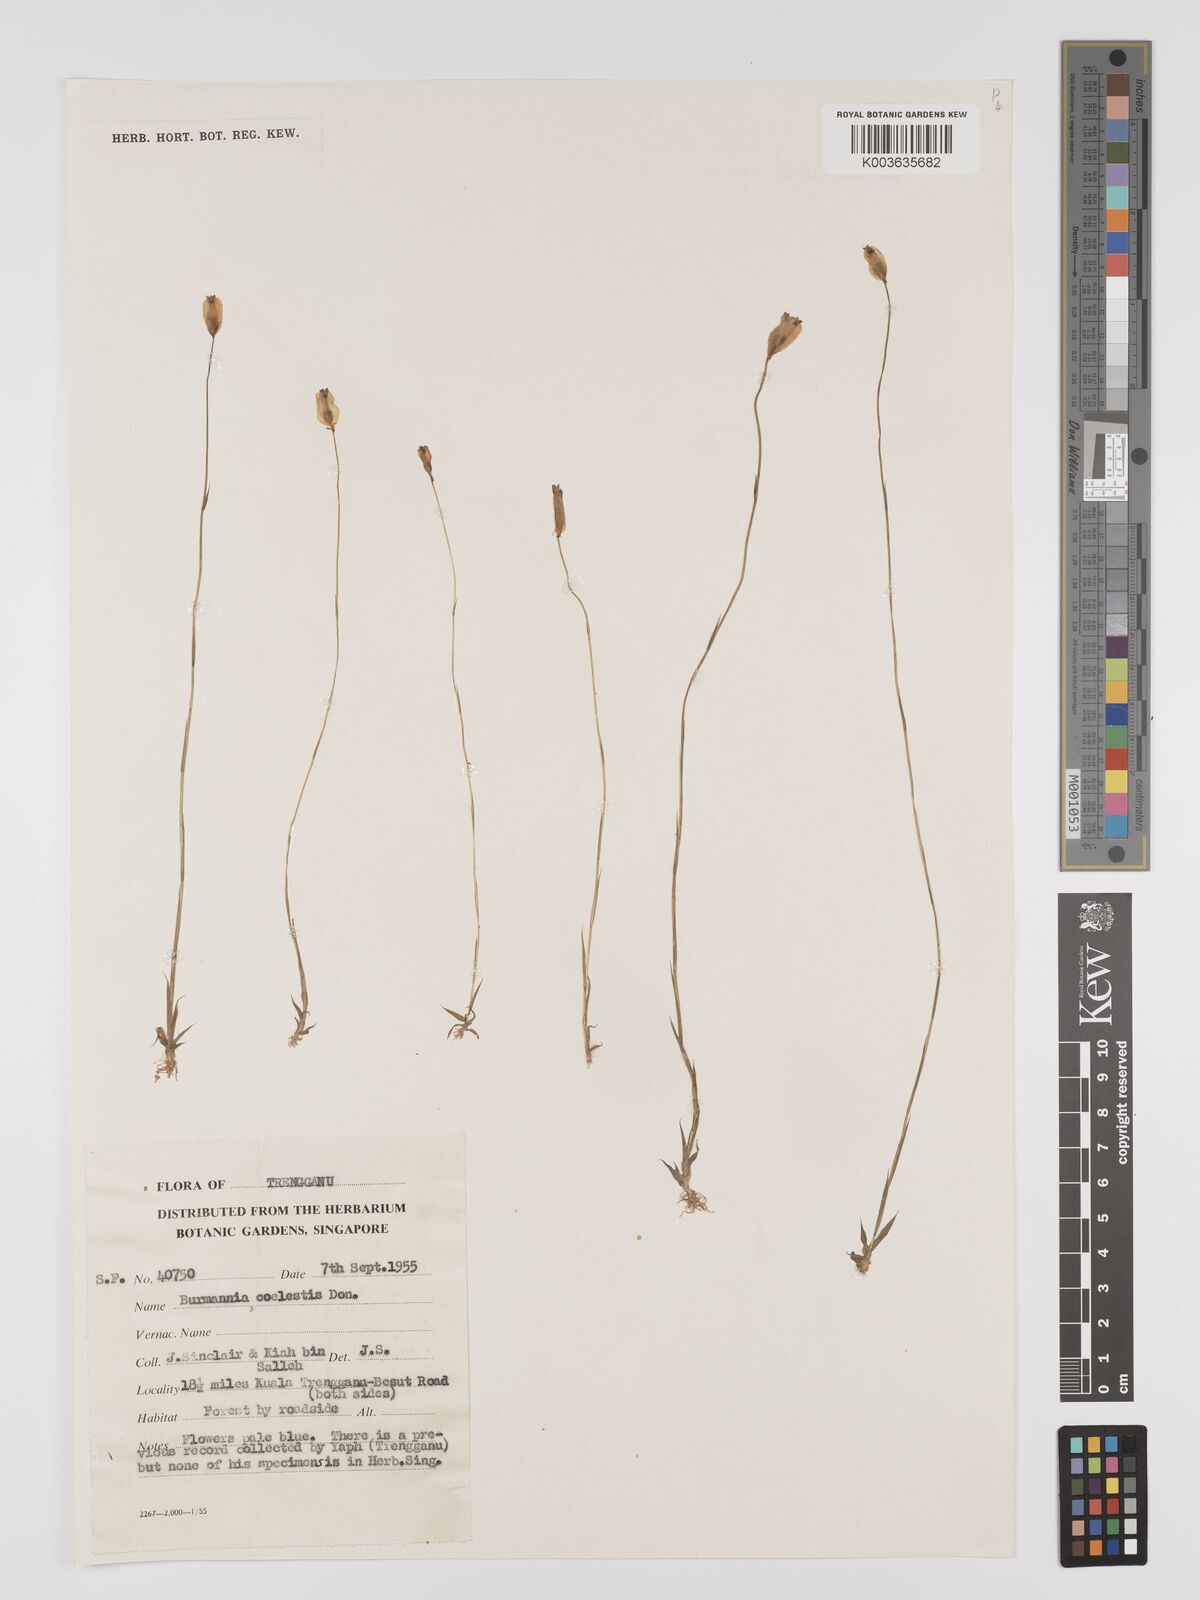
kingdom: Plantae
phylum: Tracheophyta
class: Liliopsida
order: Dioscoreales
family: Burmanniaceae
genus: Burmannia
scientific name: Burmannia coelestis
